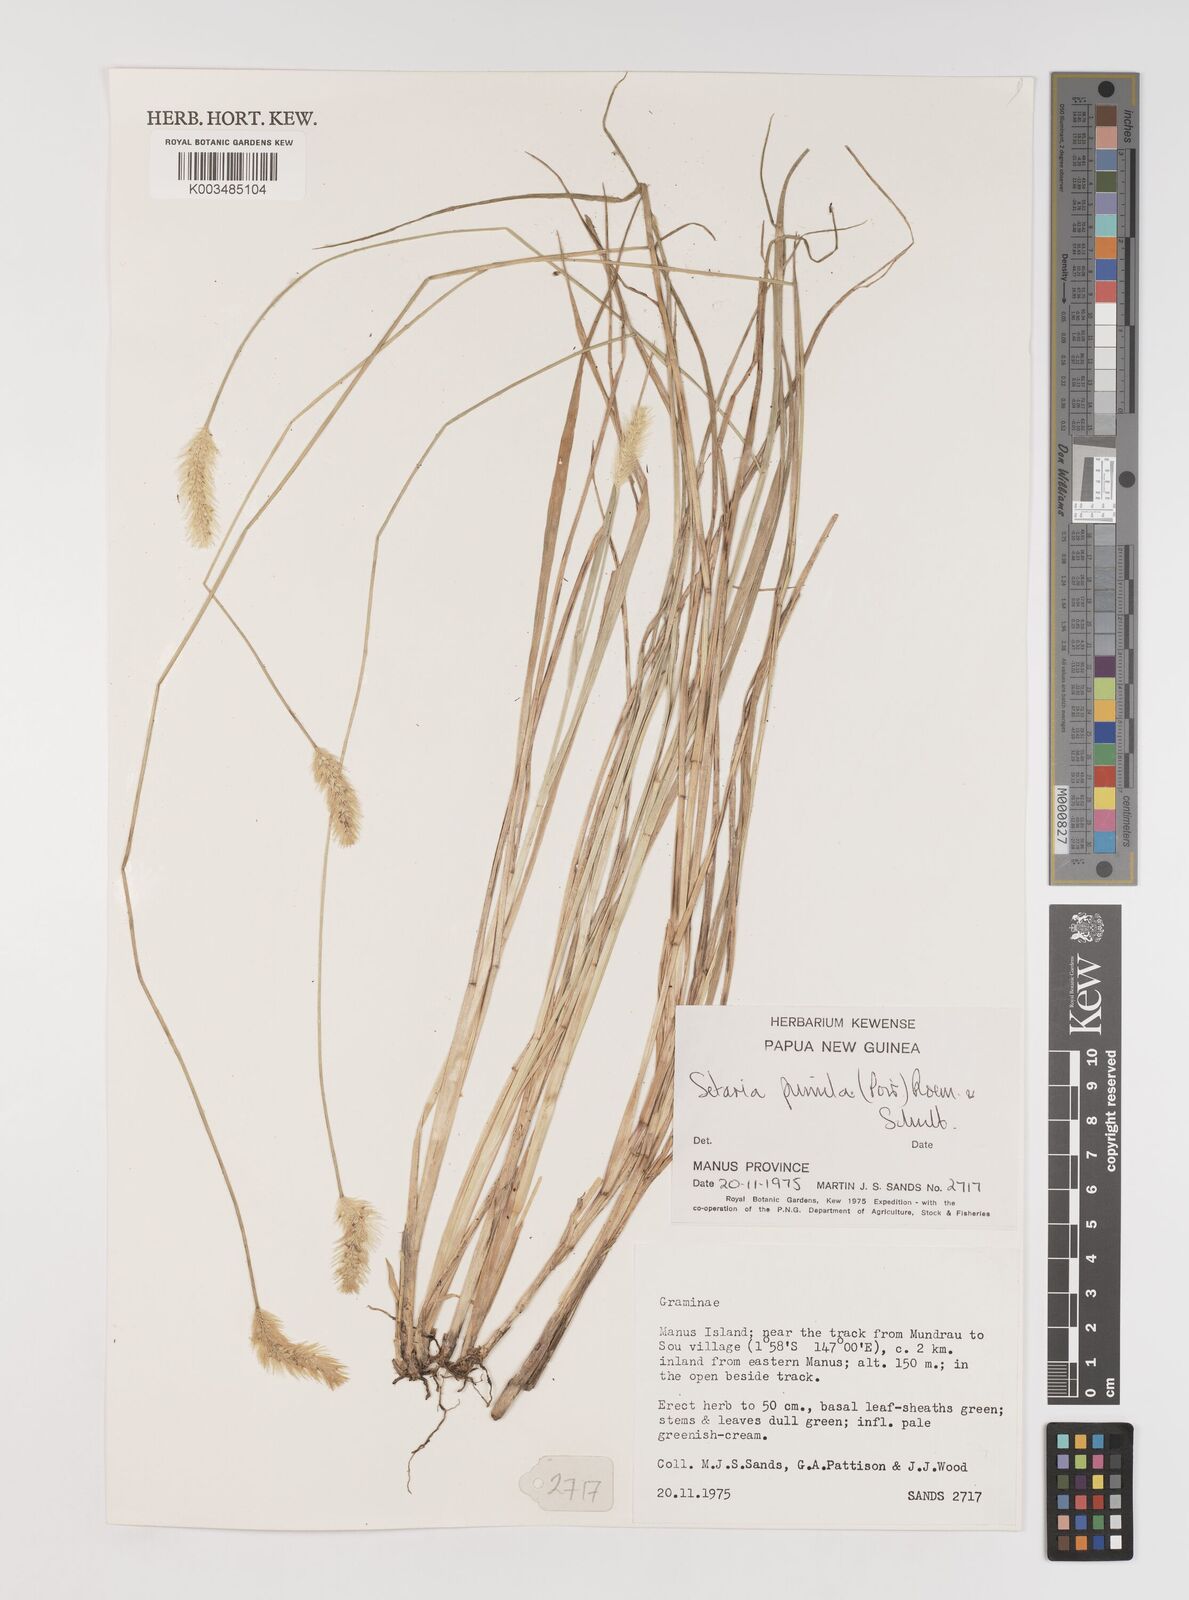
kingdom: Plantae
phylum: Tracheophyta
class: Liliopsida
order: Poales
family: Poaceae
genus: Setaria
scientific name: Setaria parviflora
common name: Knotroot bristle-grass
